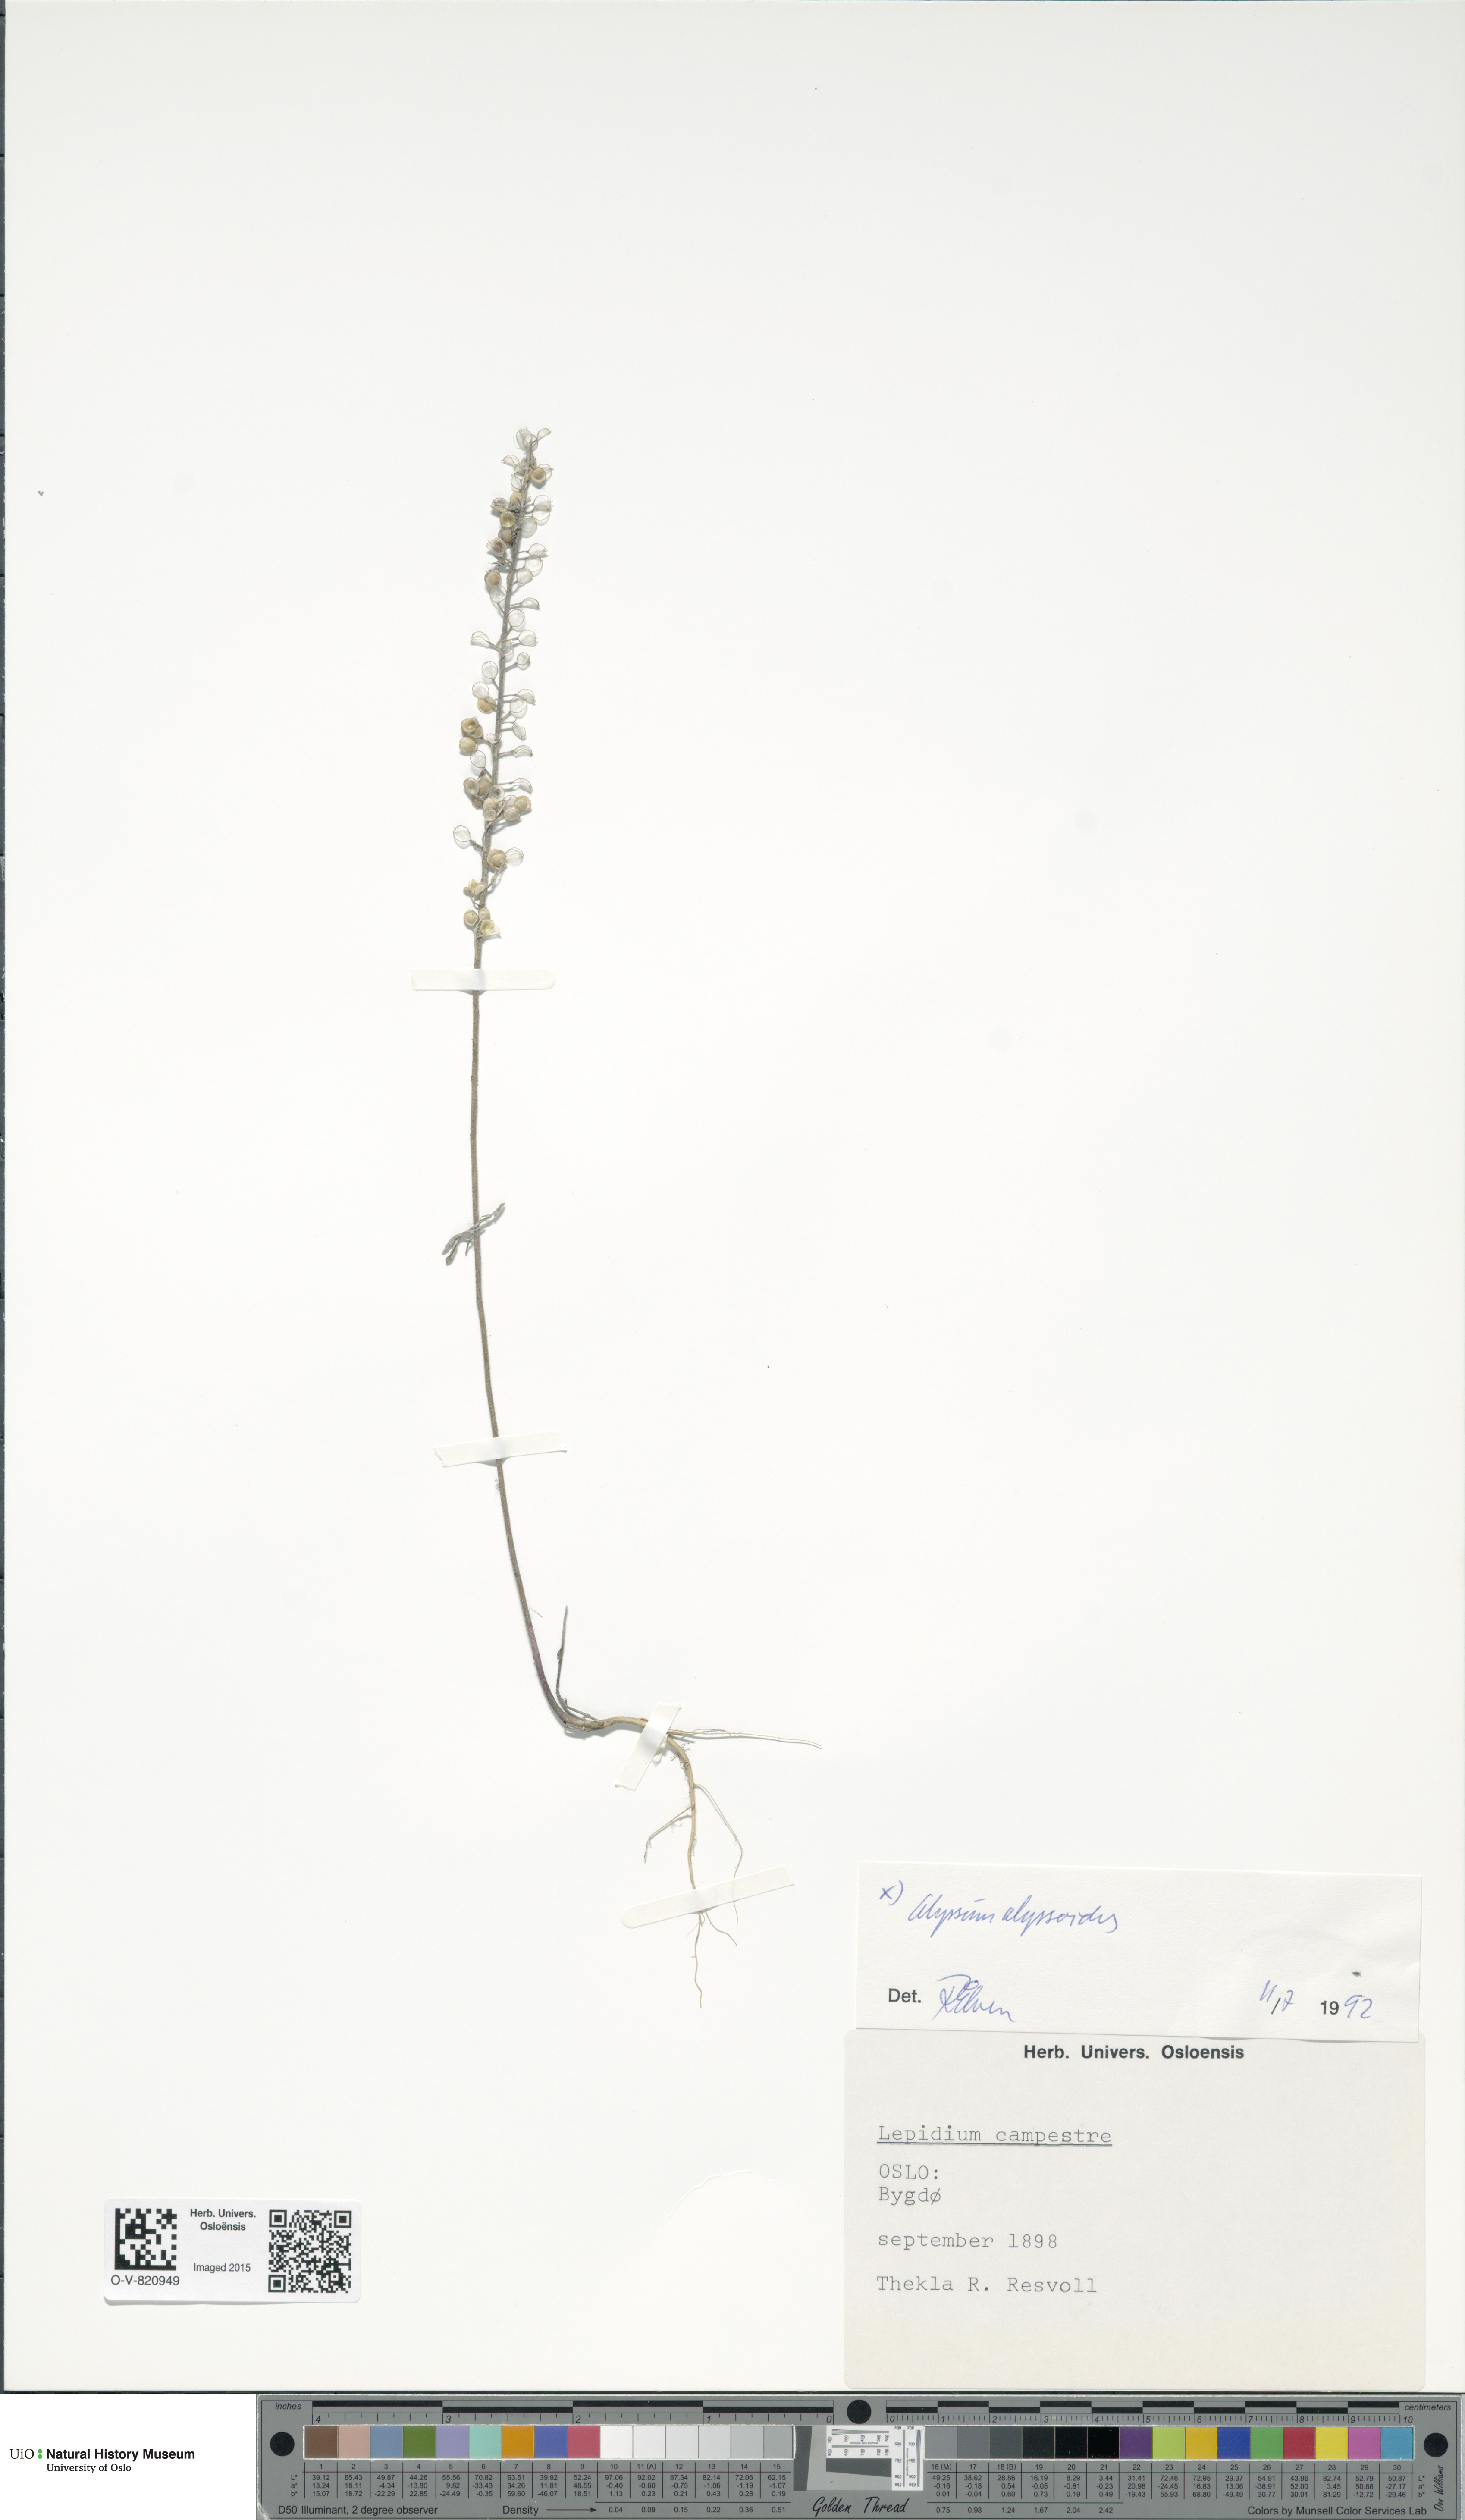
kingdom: Plantae
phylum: Tracheophyta
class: Magnoliopsida
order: Brassicales
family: Brassicaceae
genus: Alyssum
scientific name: Alyssum alyssoides
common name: Small alison
